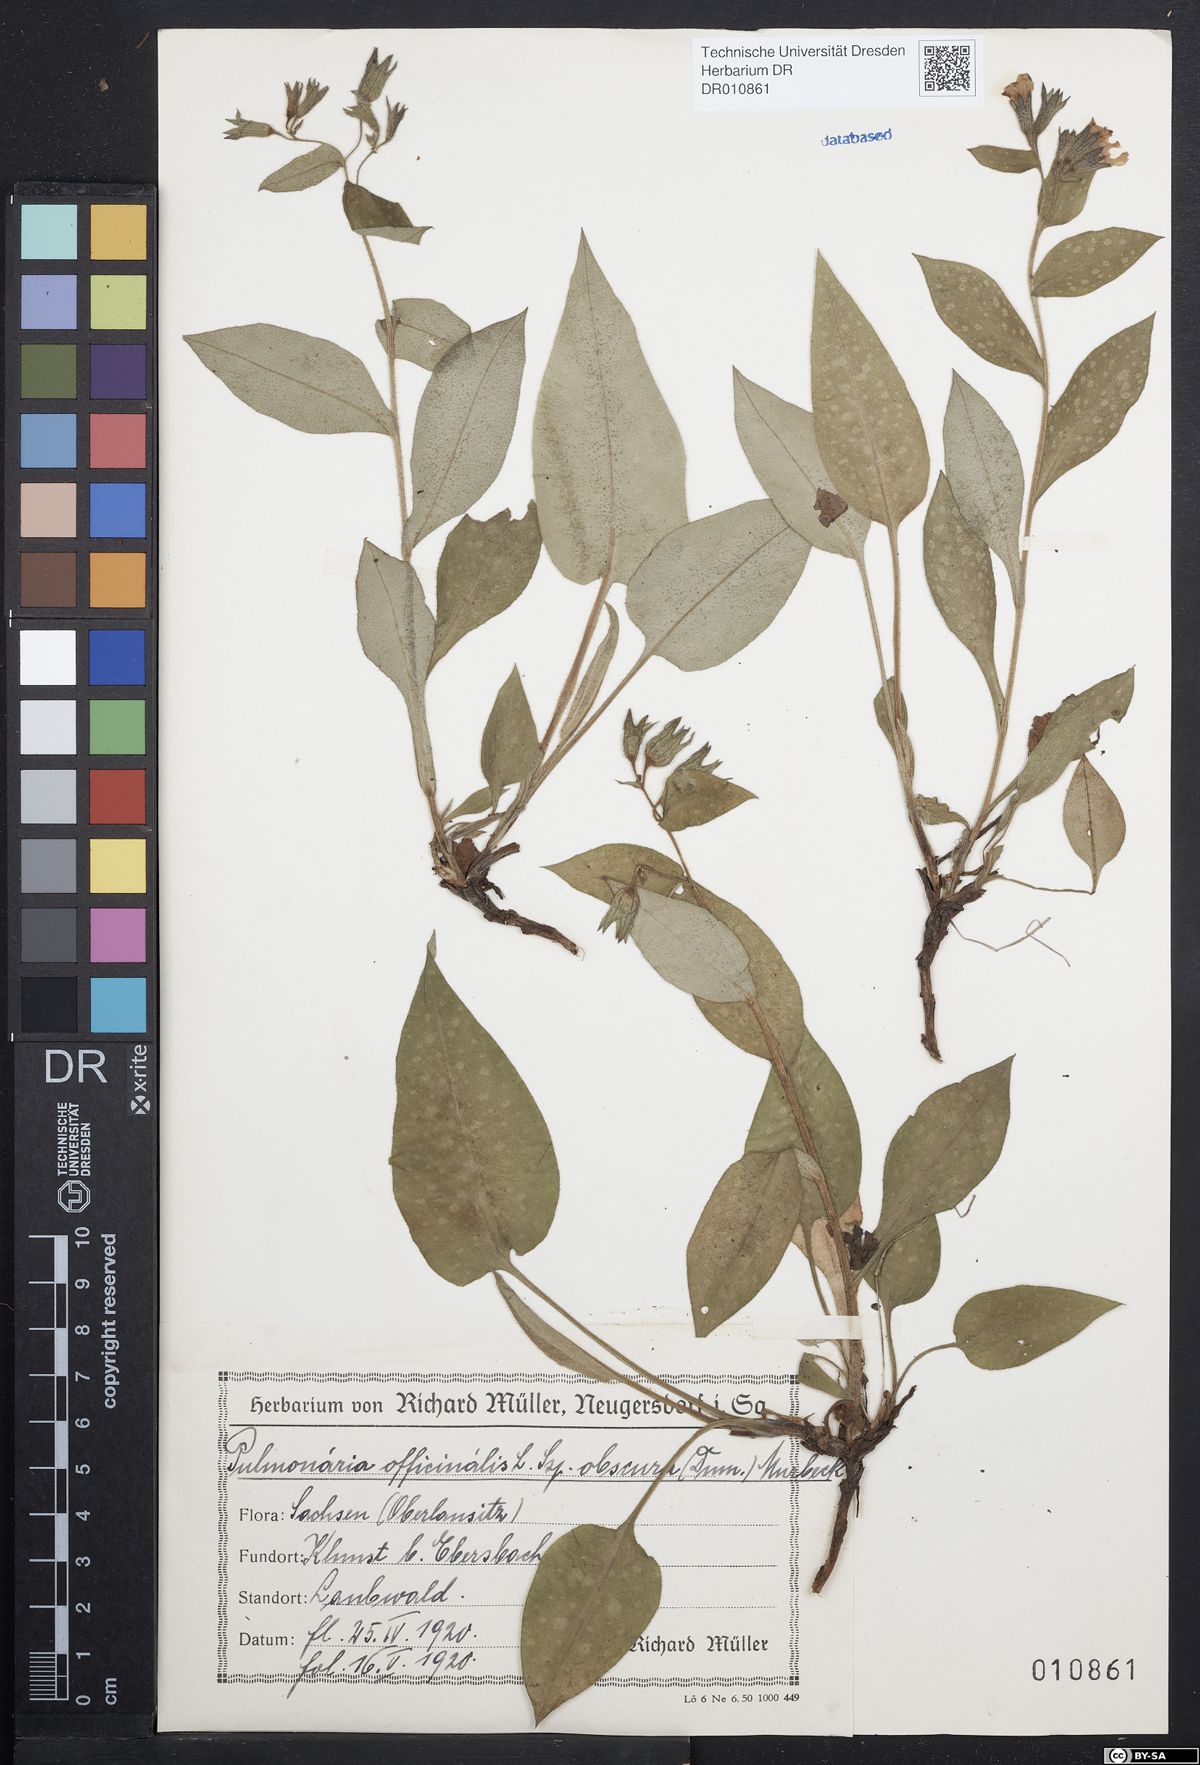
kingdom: Plantae
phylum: Tracheophyta
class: Magnoliopsida
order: Boraginales
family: Boraginaceae
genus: Pulmonaria
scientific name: Pulmonaria officinalis
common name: Lungwort
